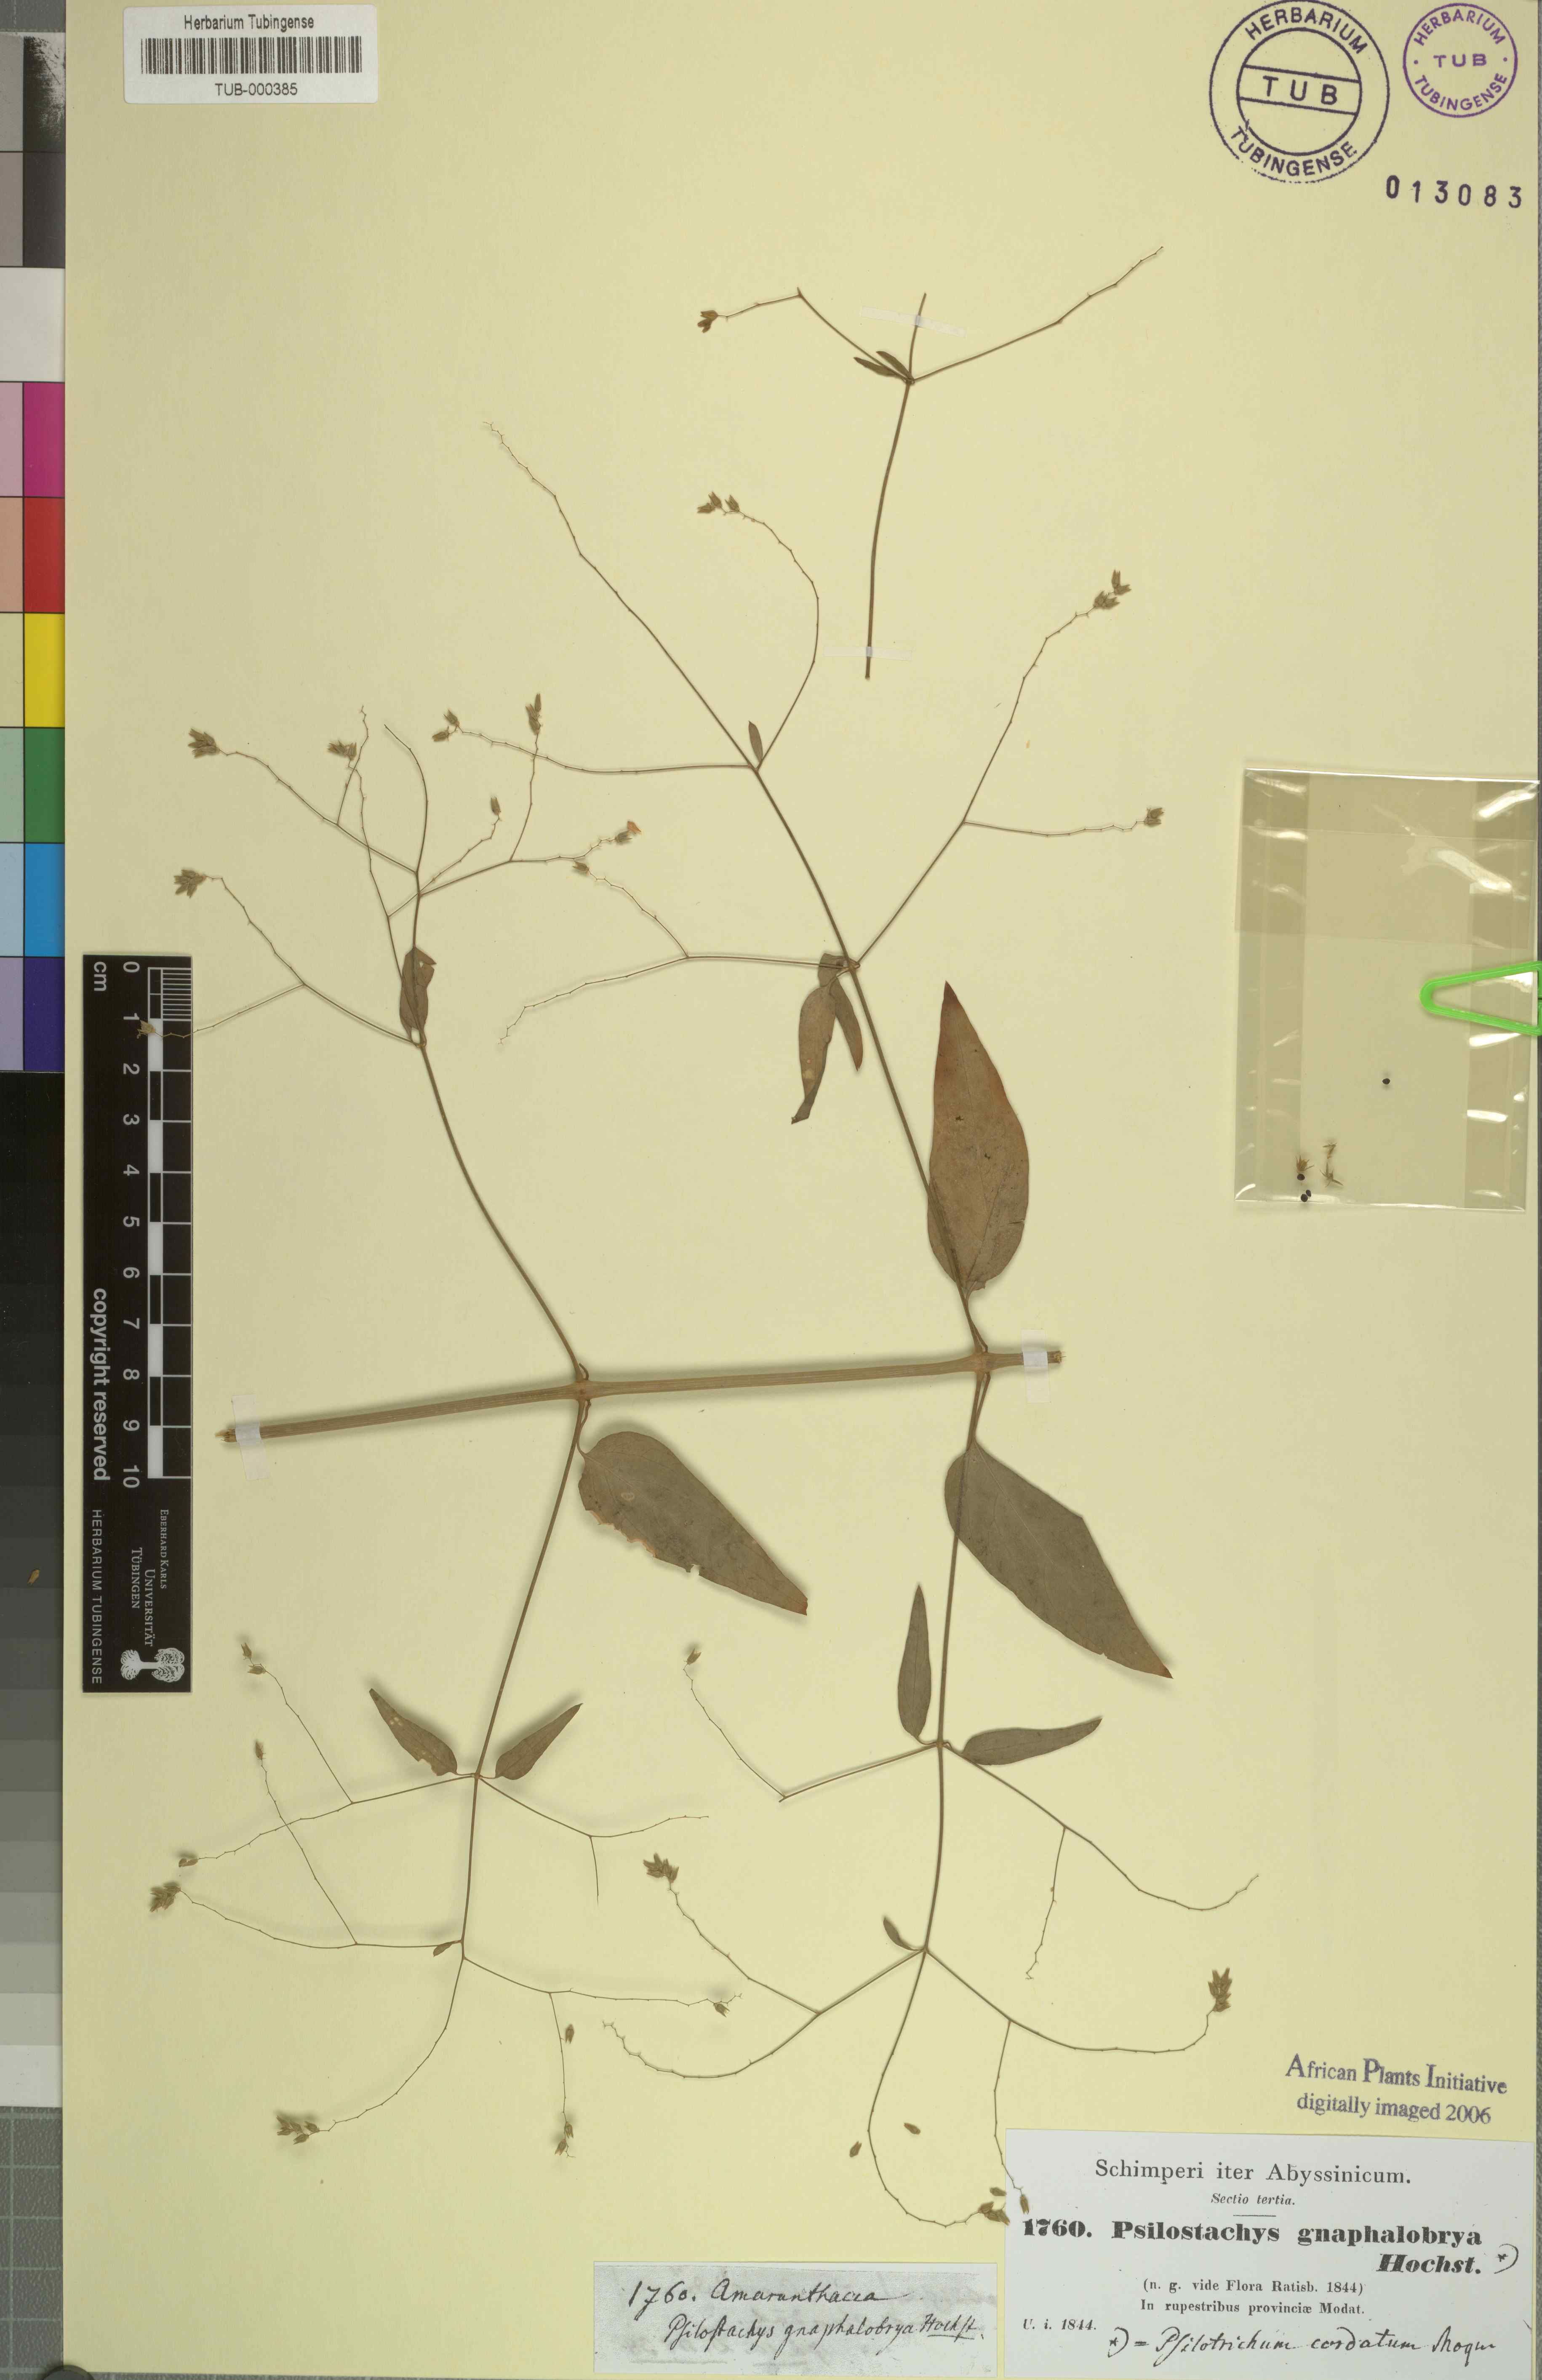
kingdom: Plantae
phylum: Tracheophyta
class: Magnoliopsida
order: Caryophyllales
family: Amaranthaceae
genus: Psilotrichum
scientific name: Psilotrichum gnaphalobryum
